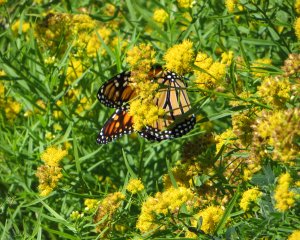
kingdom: Animalia
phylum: Arthropoda
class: Insecta
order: Lepidoptera
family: Nymphalidae
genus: Danaus
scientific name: Danaus plexippus
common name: Monarch
